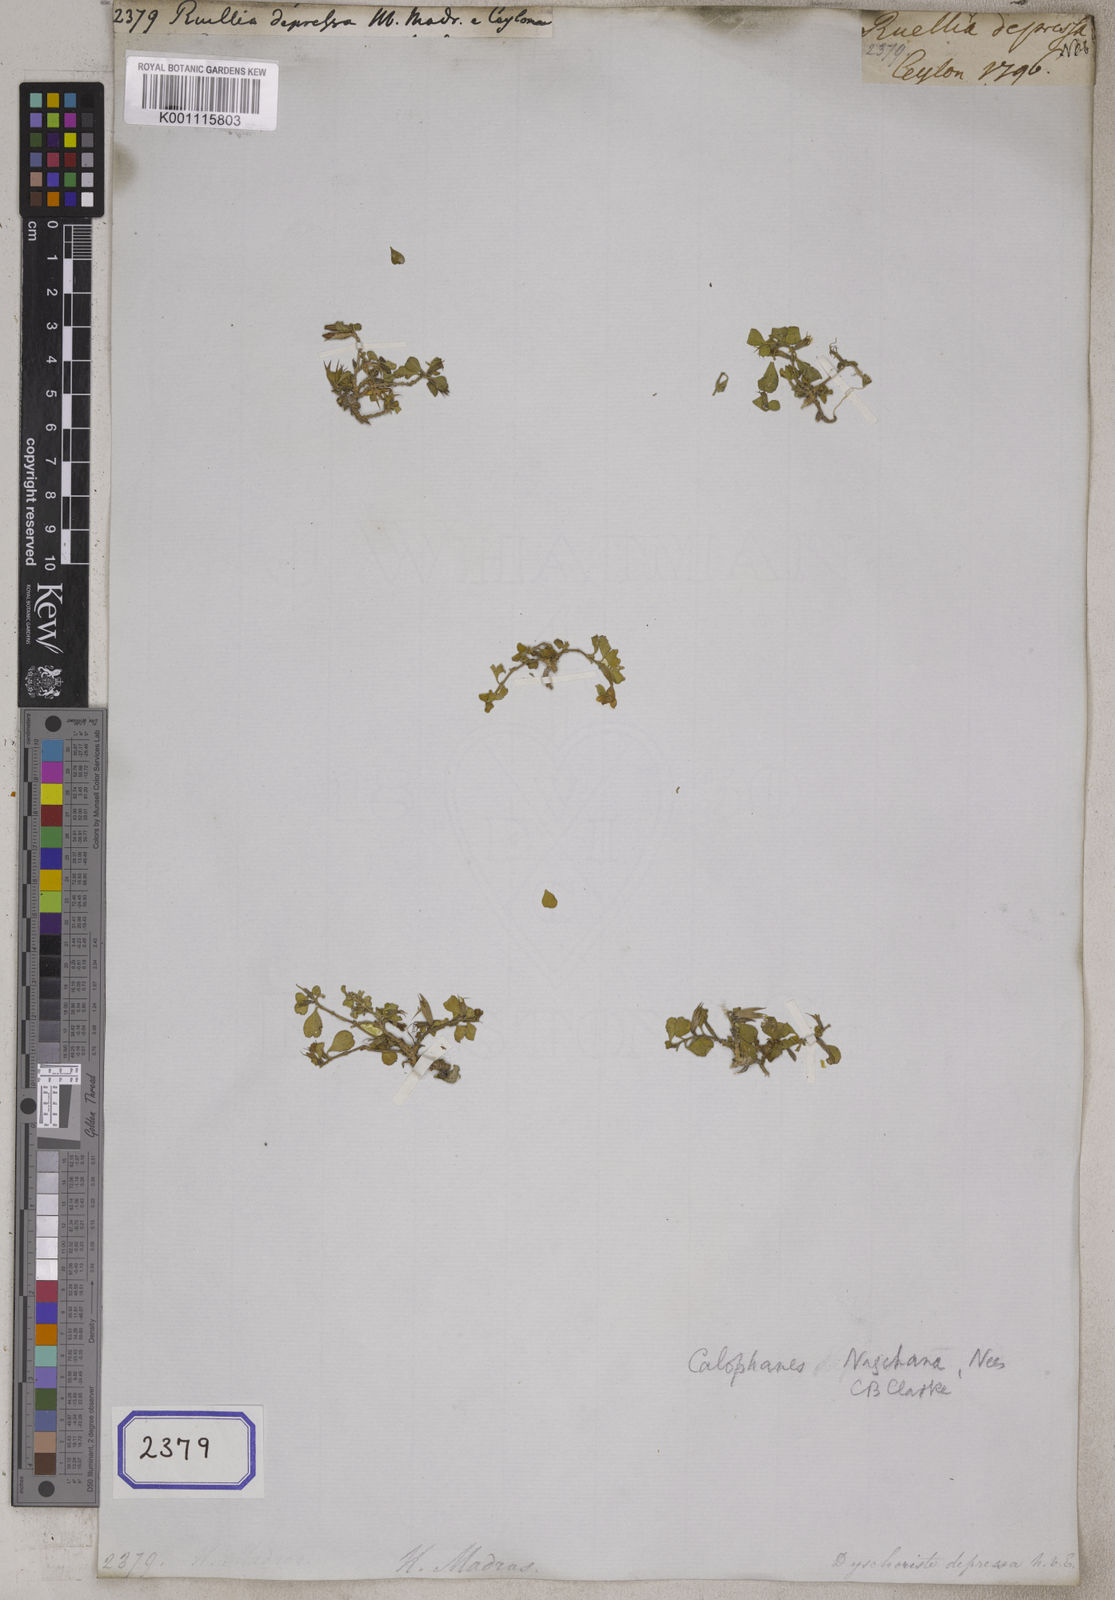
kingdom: Plantae
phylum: Tracheophyta
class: Magnoliopsida
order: Lamiales
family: Acanthaceae
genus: Hygrophila
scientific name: Hygrophila erecta
